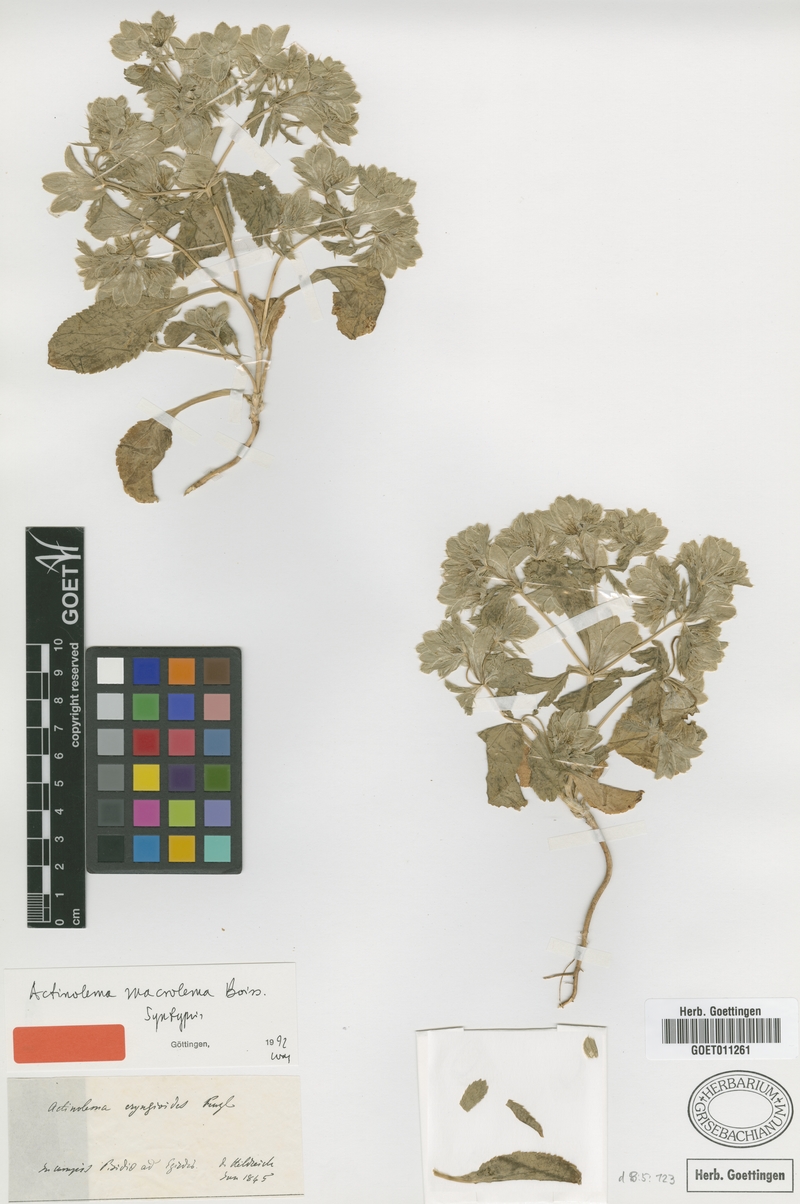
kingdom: Plantae
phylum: Tracheophyta
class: Magnoliopsida
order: Apiales
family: Apiaceae
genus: Actinolema
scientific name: Actinolema macrolema
